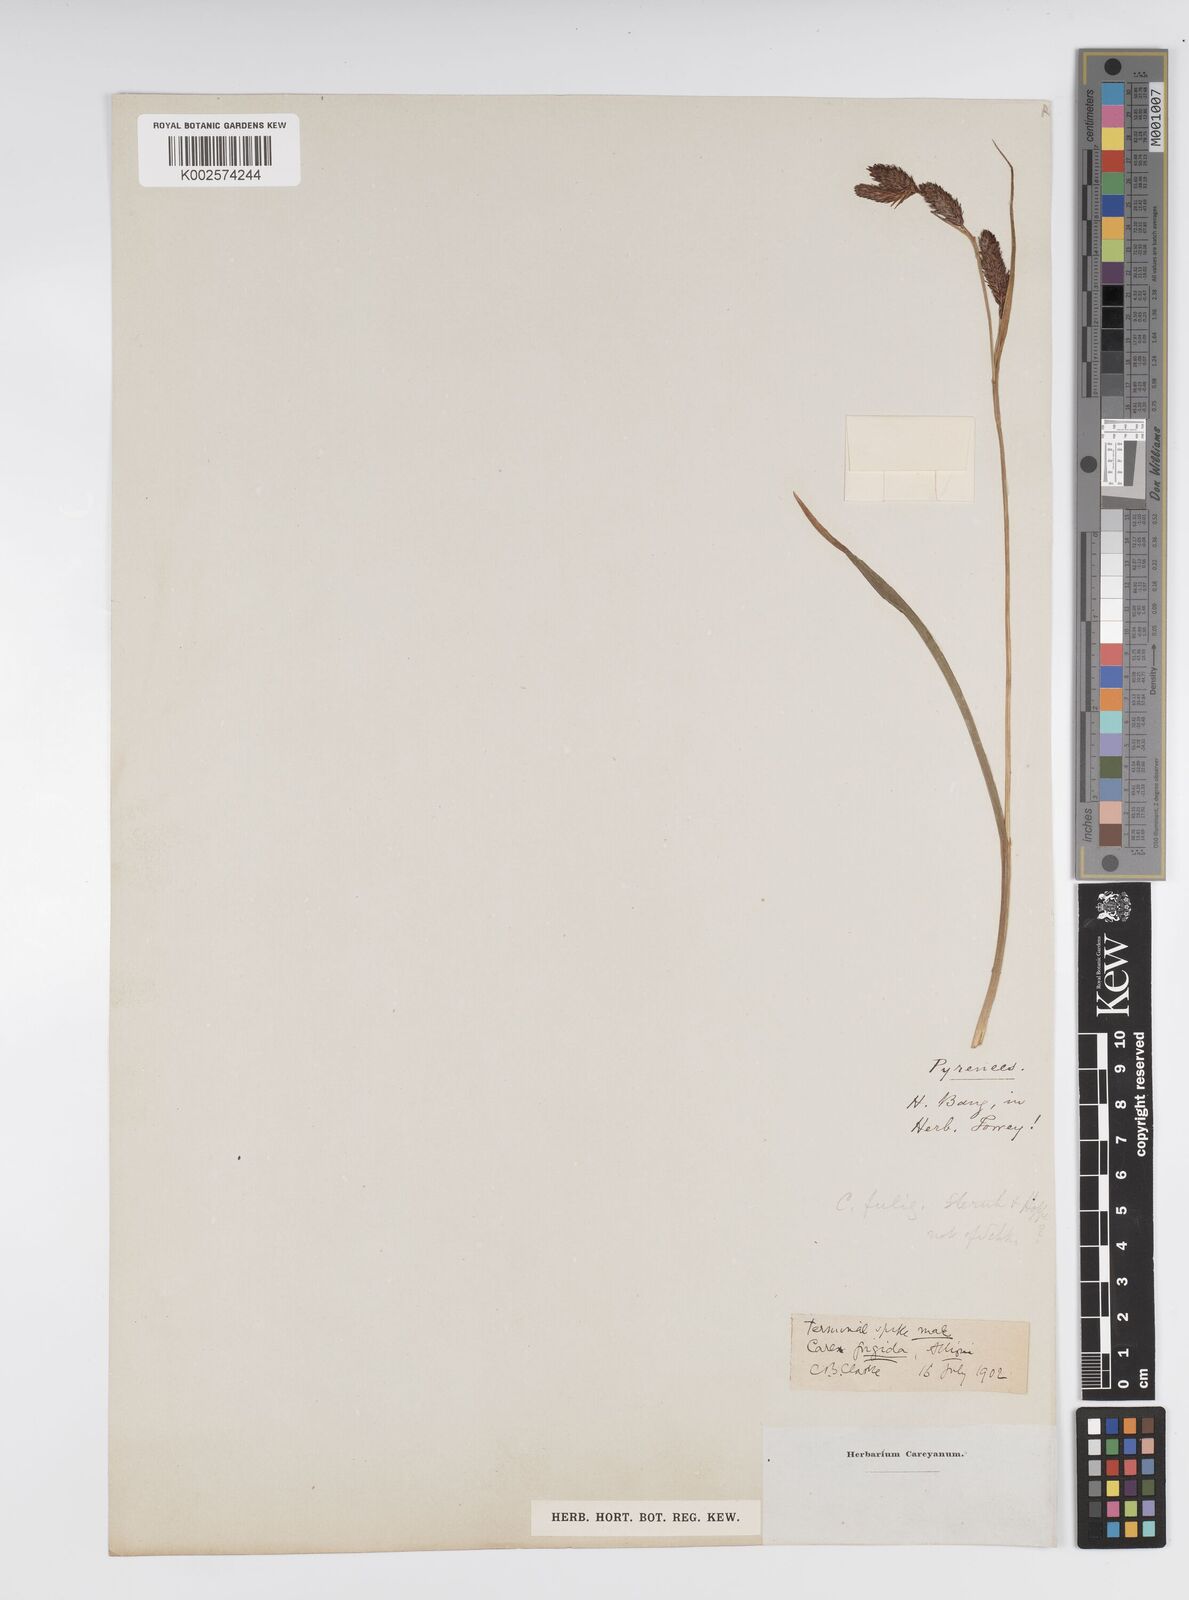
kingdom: Plantae
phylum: Tracheophyta
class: Liliopsida
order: Poales
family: Cyperaceae
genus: Carex
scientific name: Carex frigida
